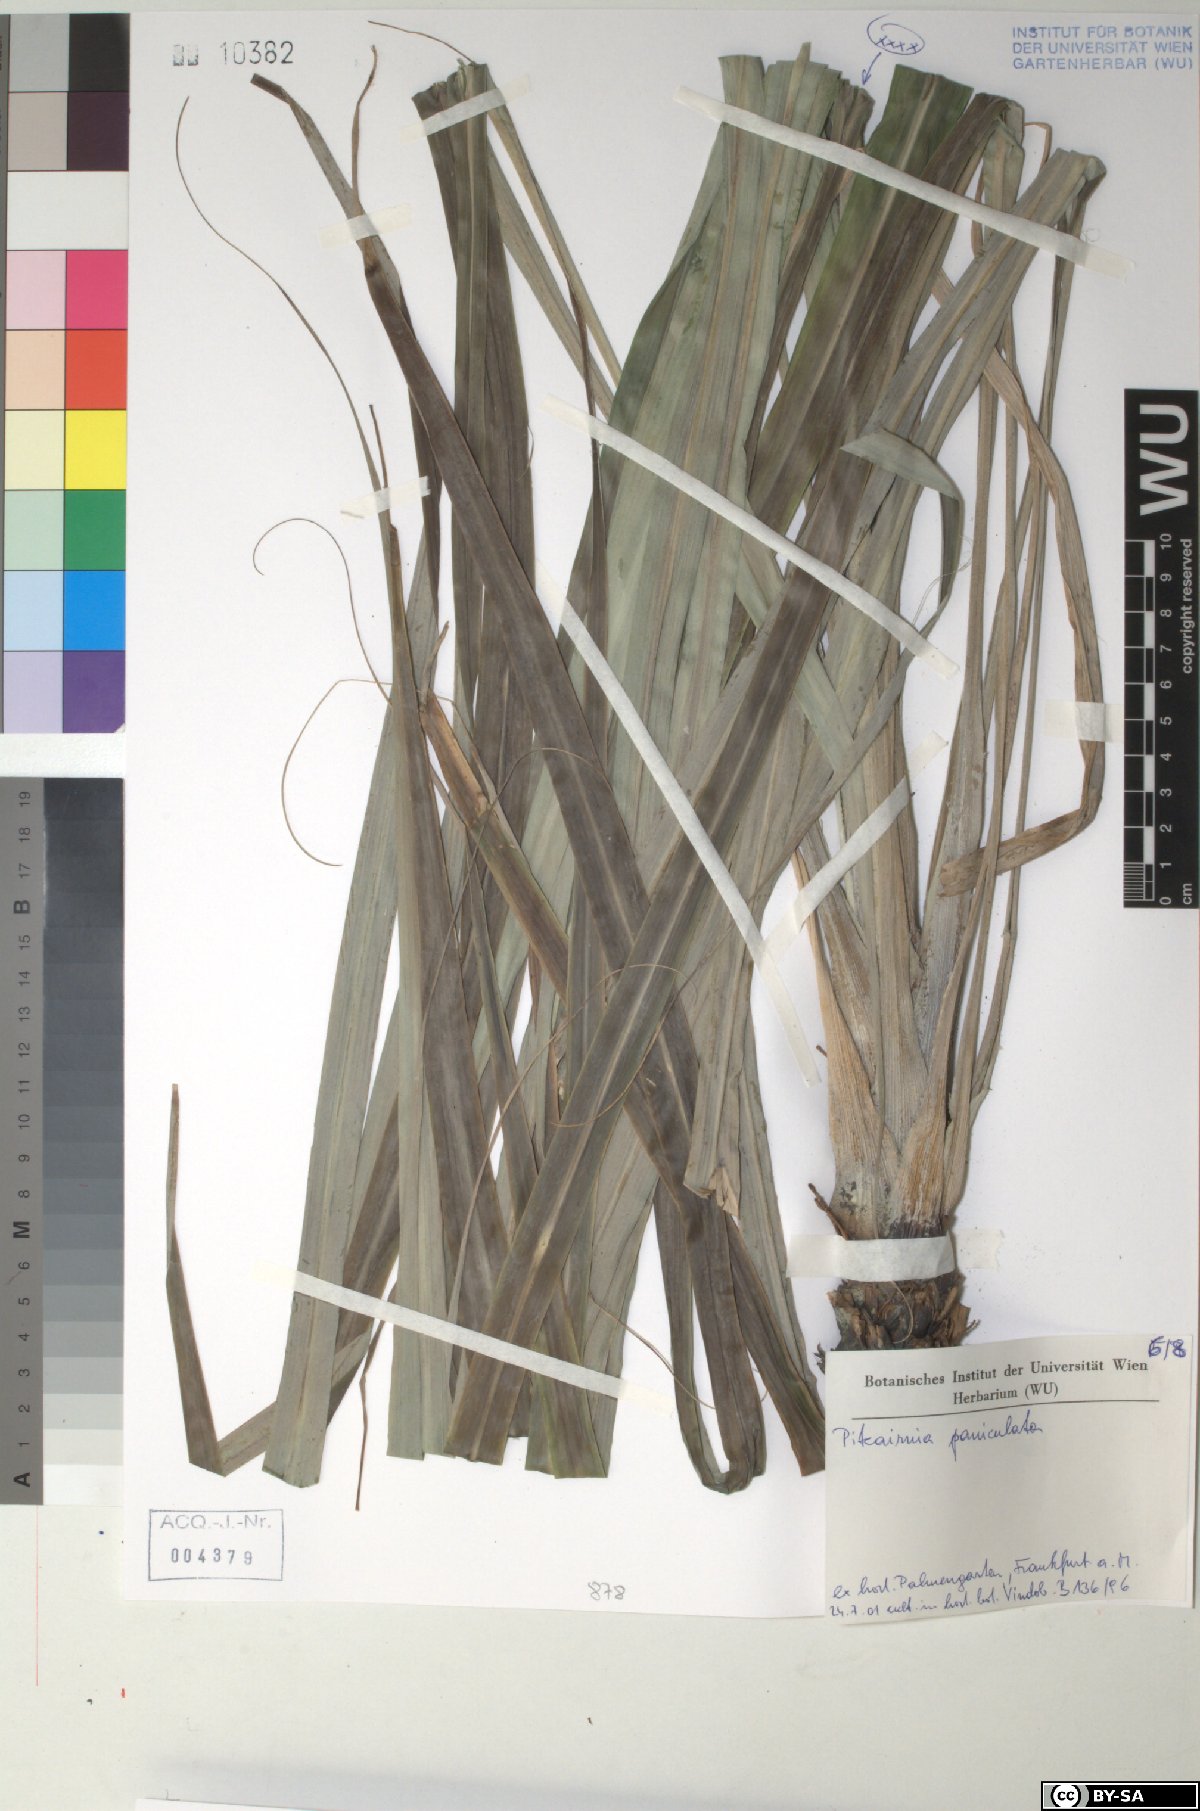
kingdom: Plantae
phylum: Tracheophyta
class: Liliopsida
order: Poales
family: Bromeliaceae
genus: Pitcairnia
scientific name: Pitcairnia paniculata
